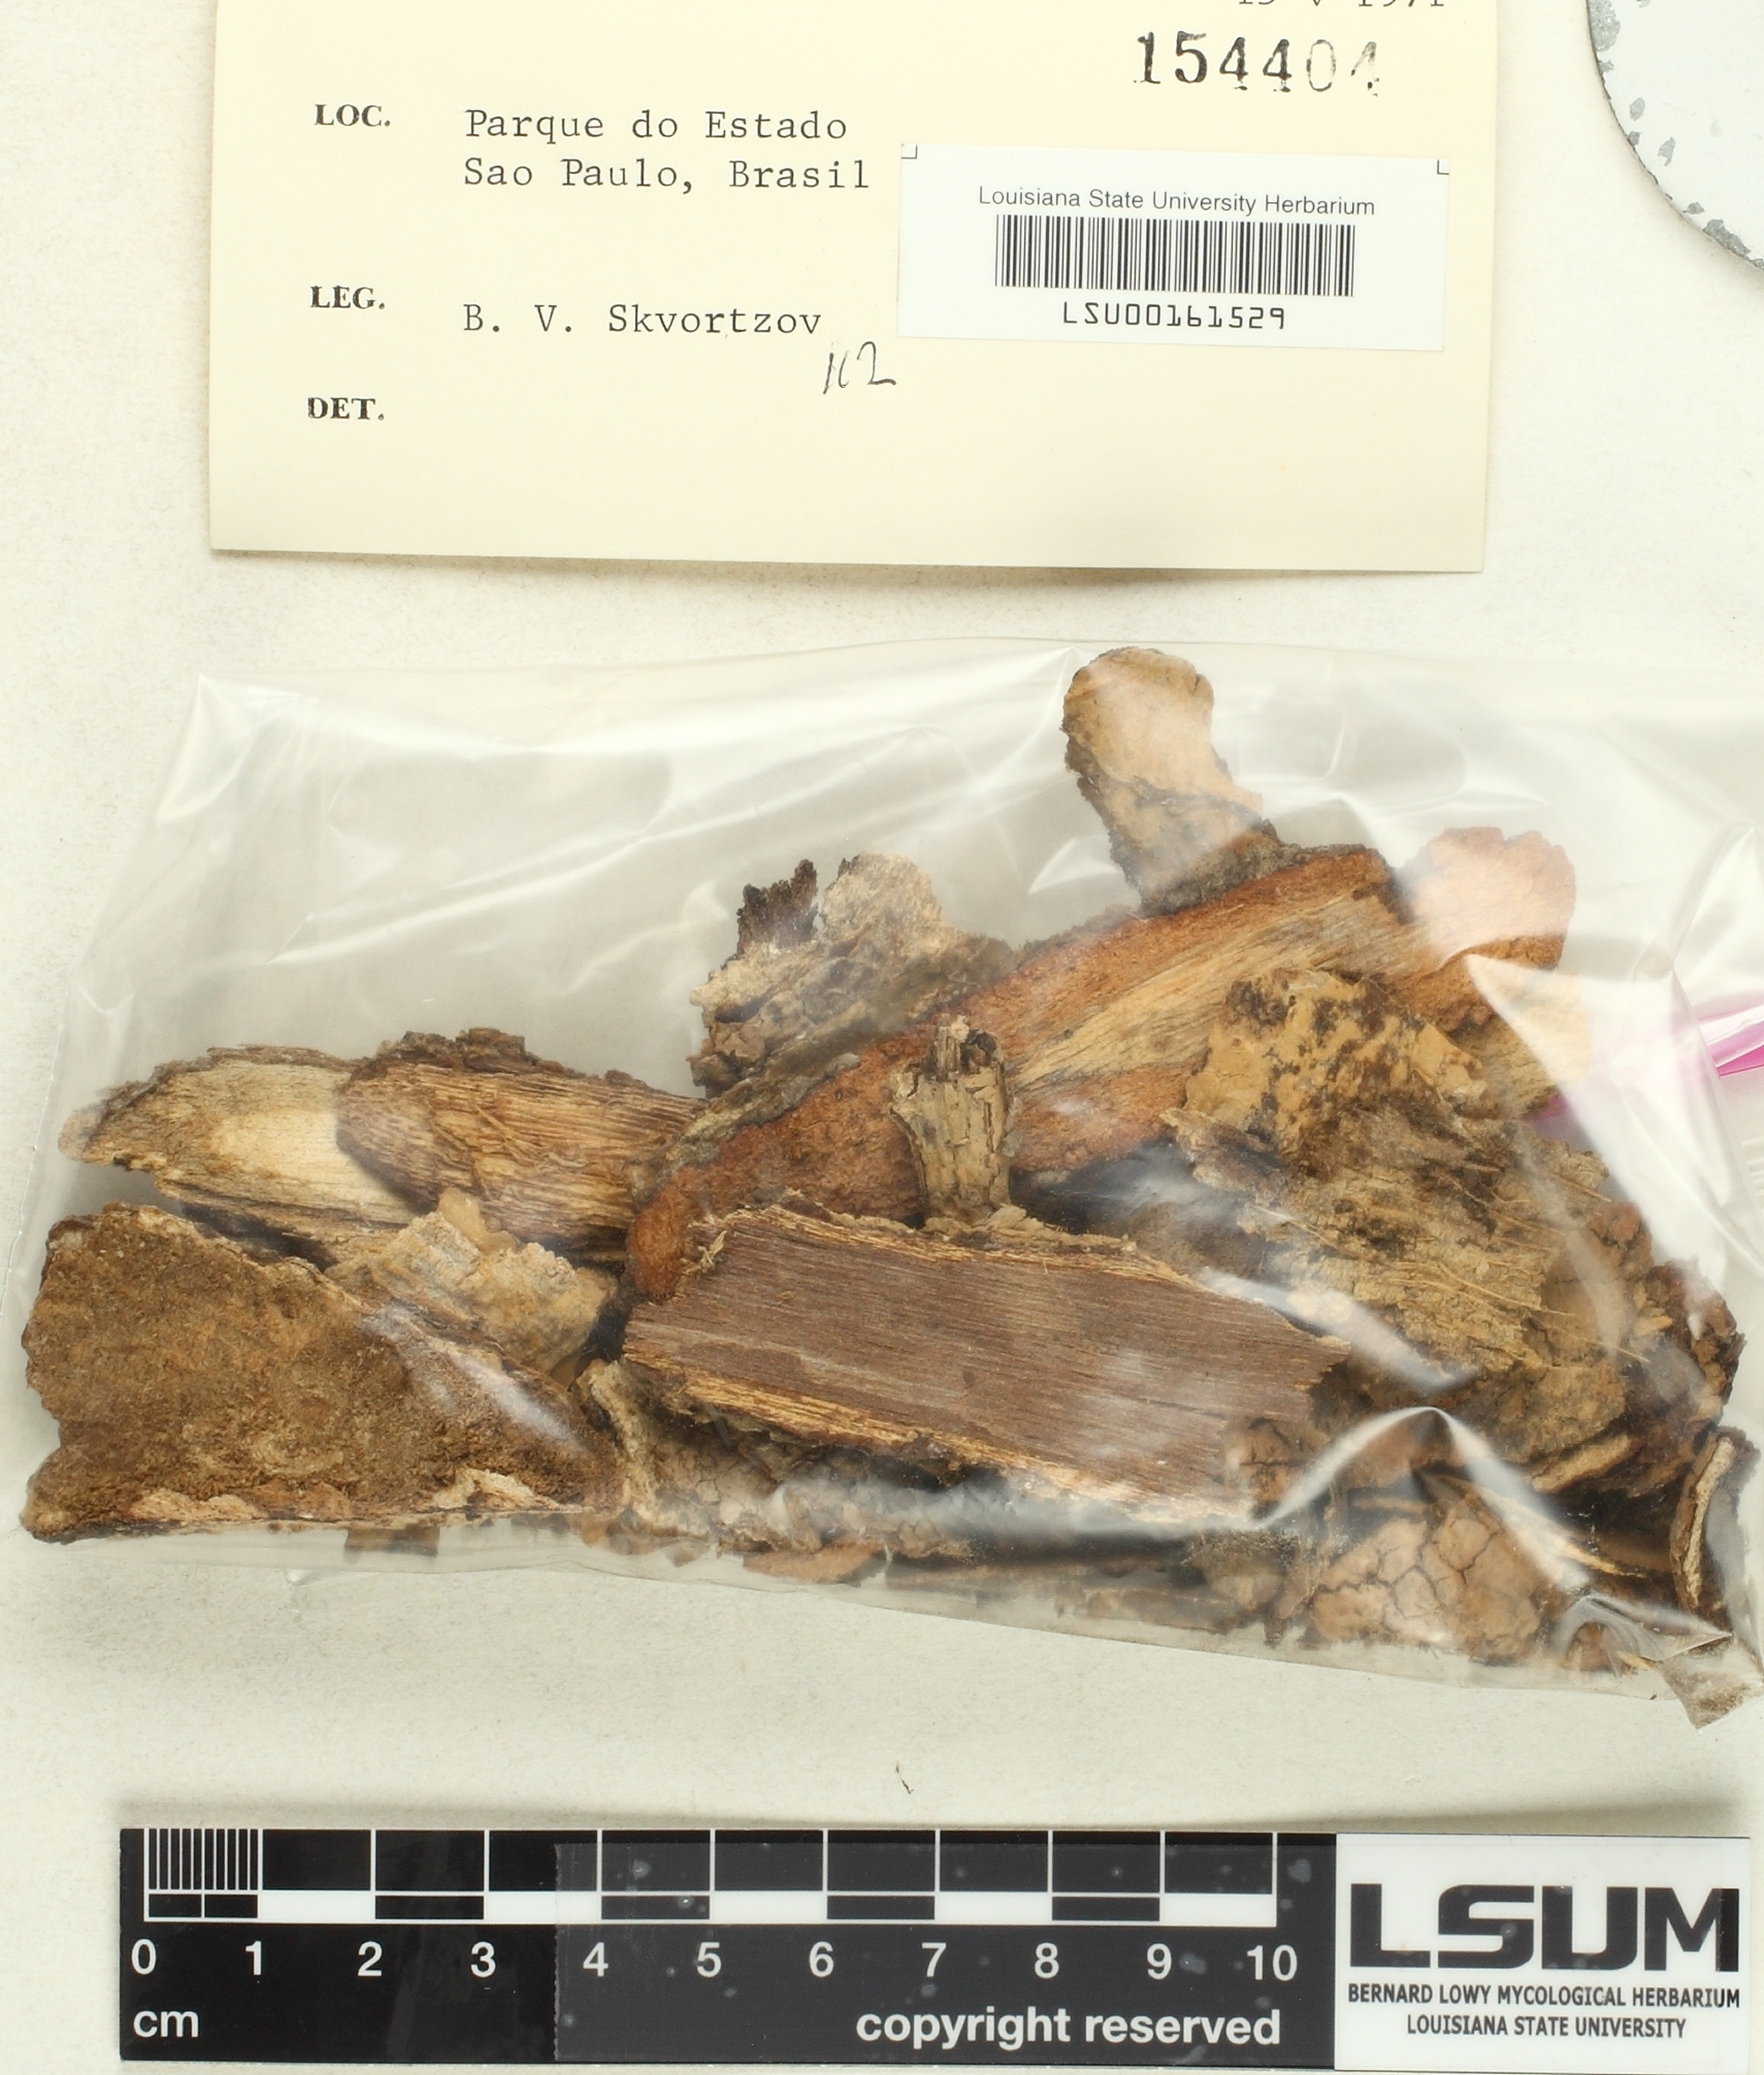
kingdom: Fungi
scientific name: Fungi
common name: Fungi
